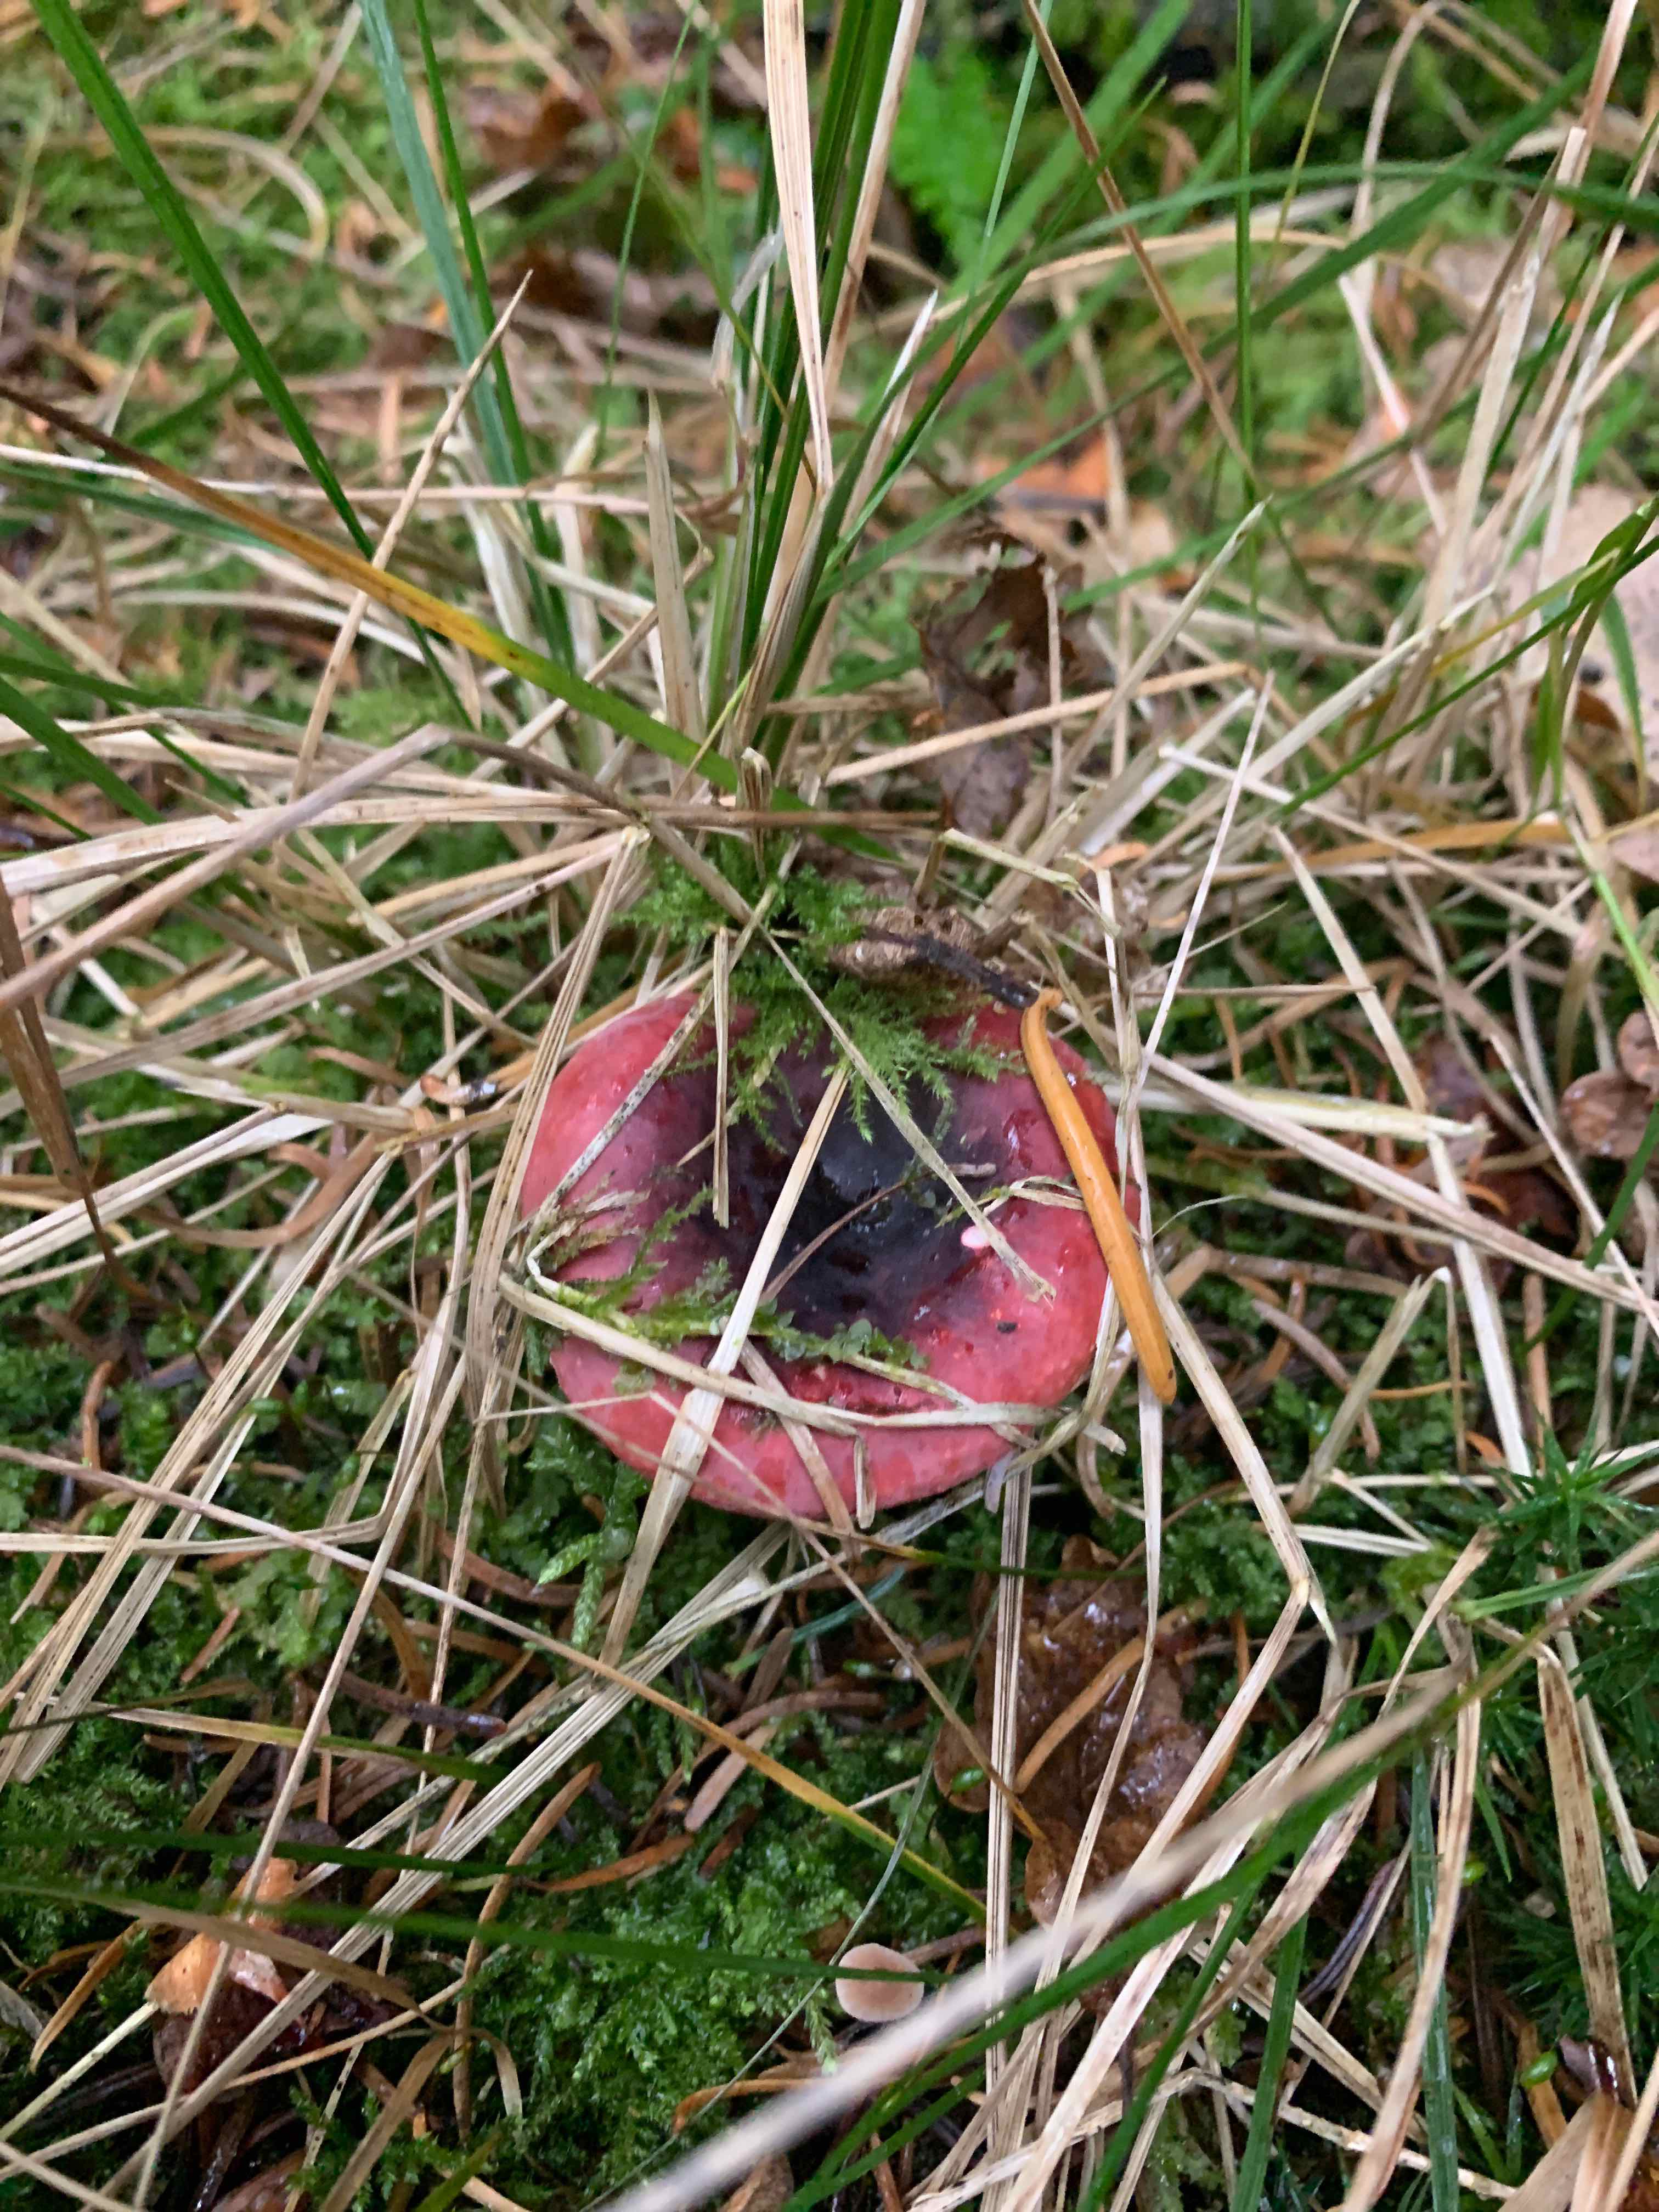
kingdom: Fungi
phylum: Basidiomycota
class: Agaricomycetes
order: Russulales
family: Russulaceae
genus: Russula
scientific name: Russula
